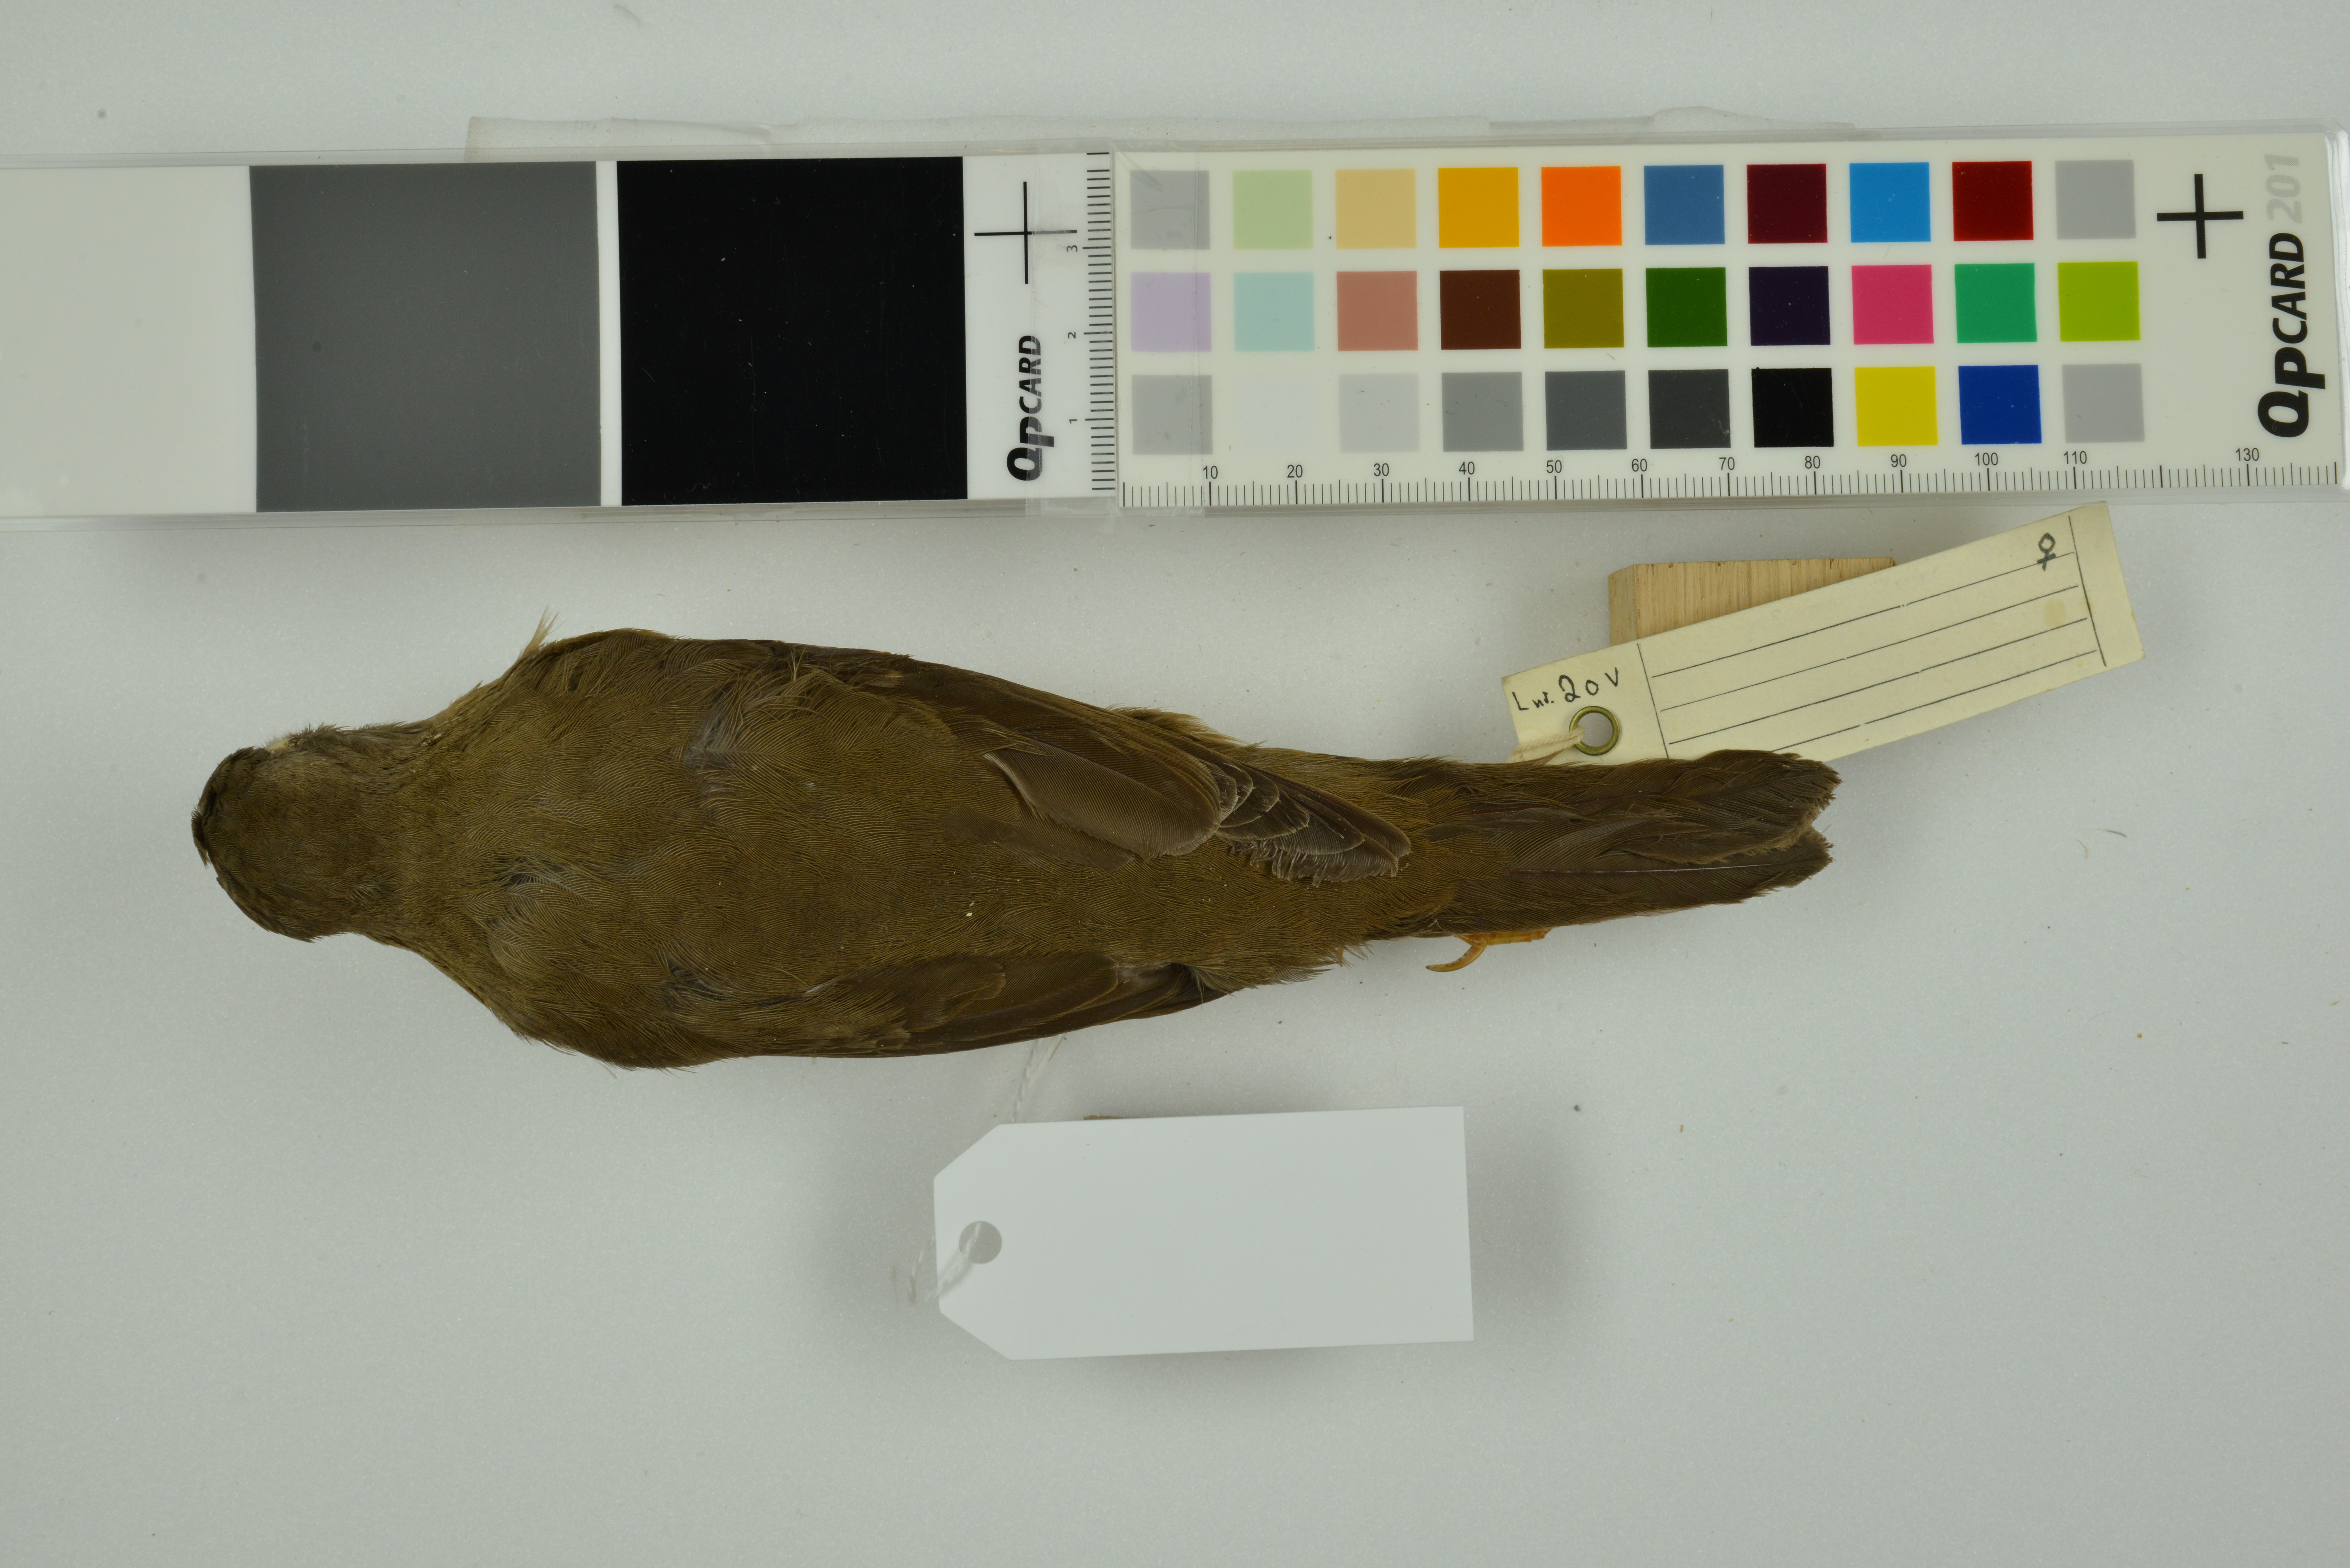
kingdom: Animalia
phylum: Chordata
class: Aves
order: Passeriformes
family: Turdidae
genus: Turdus
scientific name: Turdus poliocephalus
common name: Island thrush
